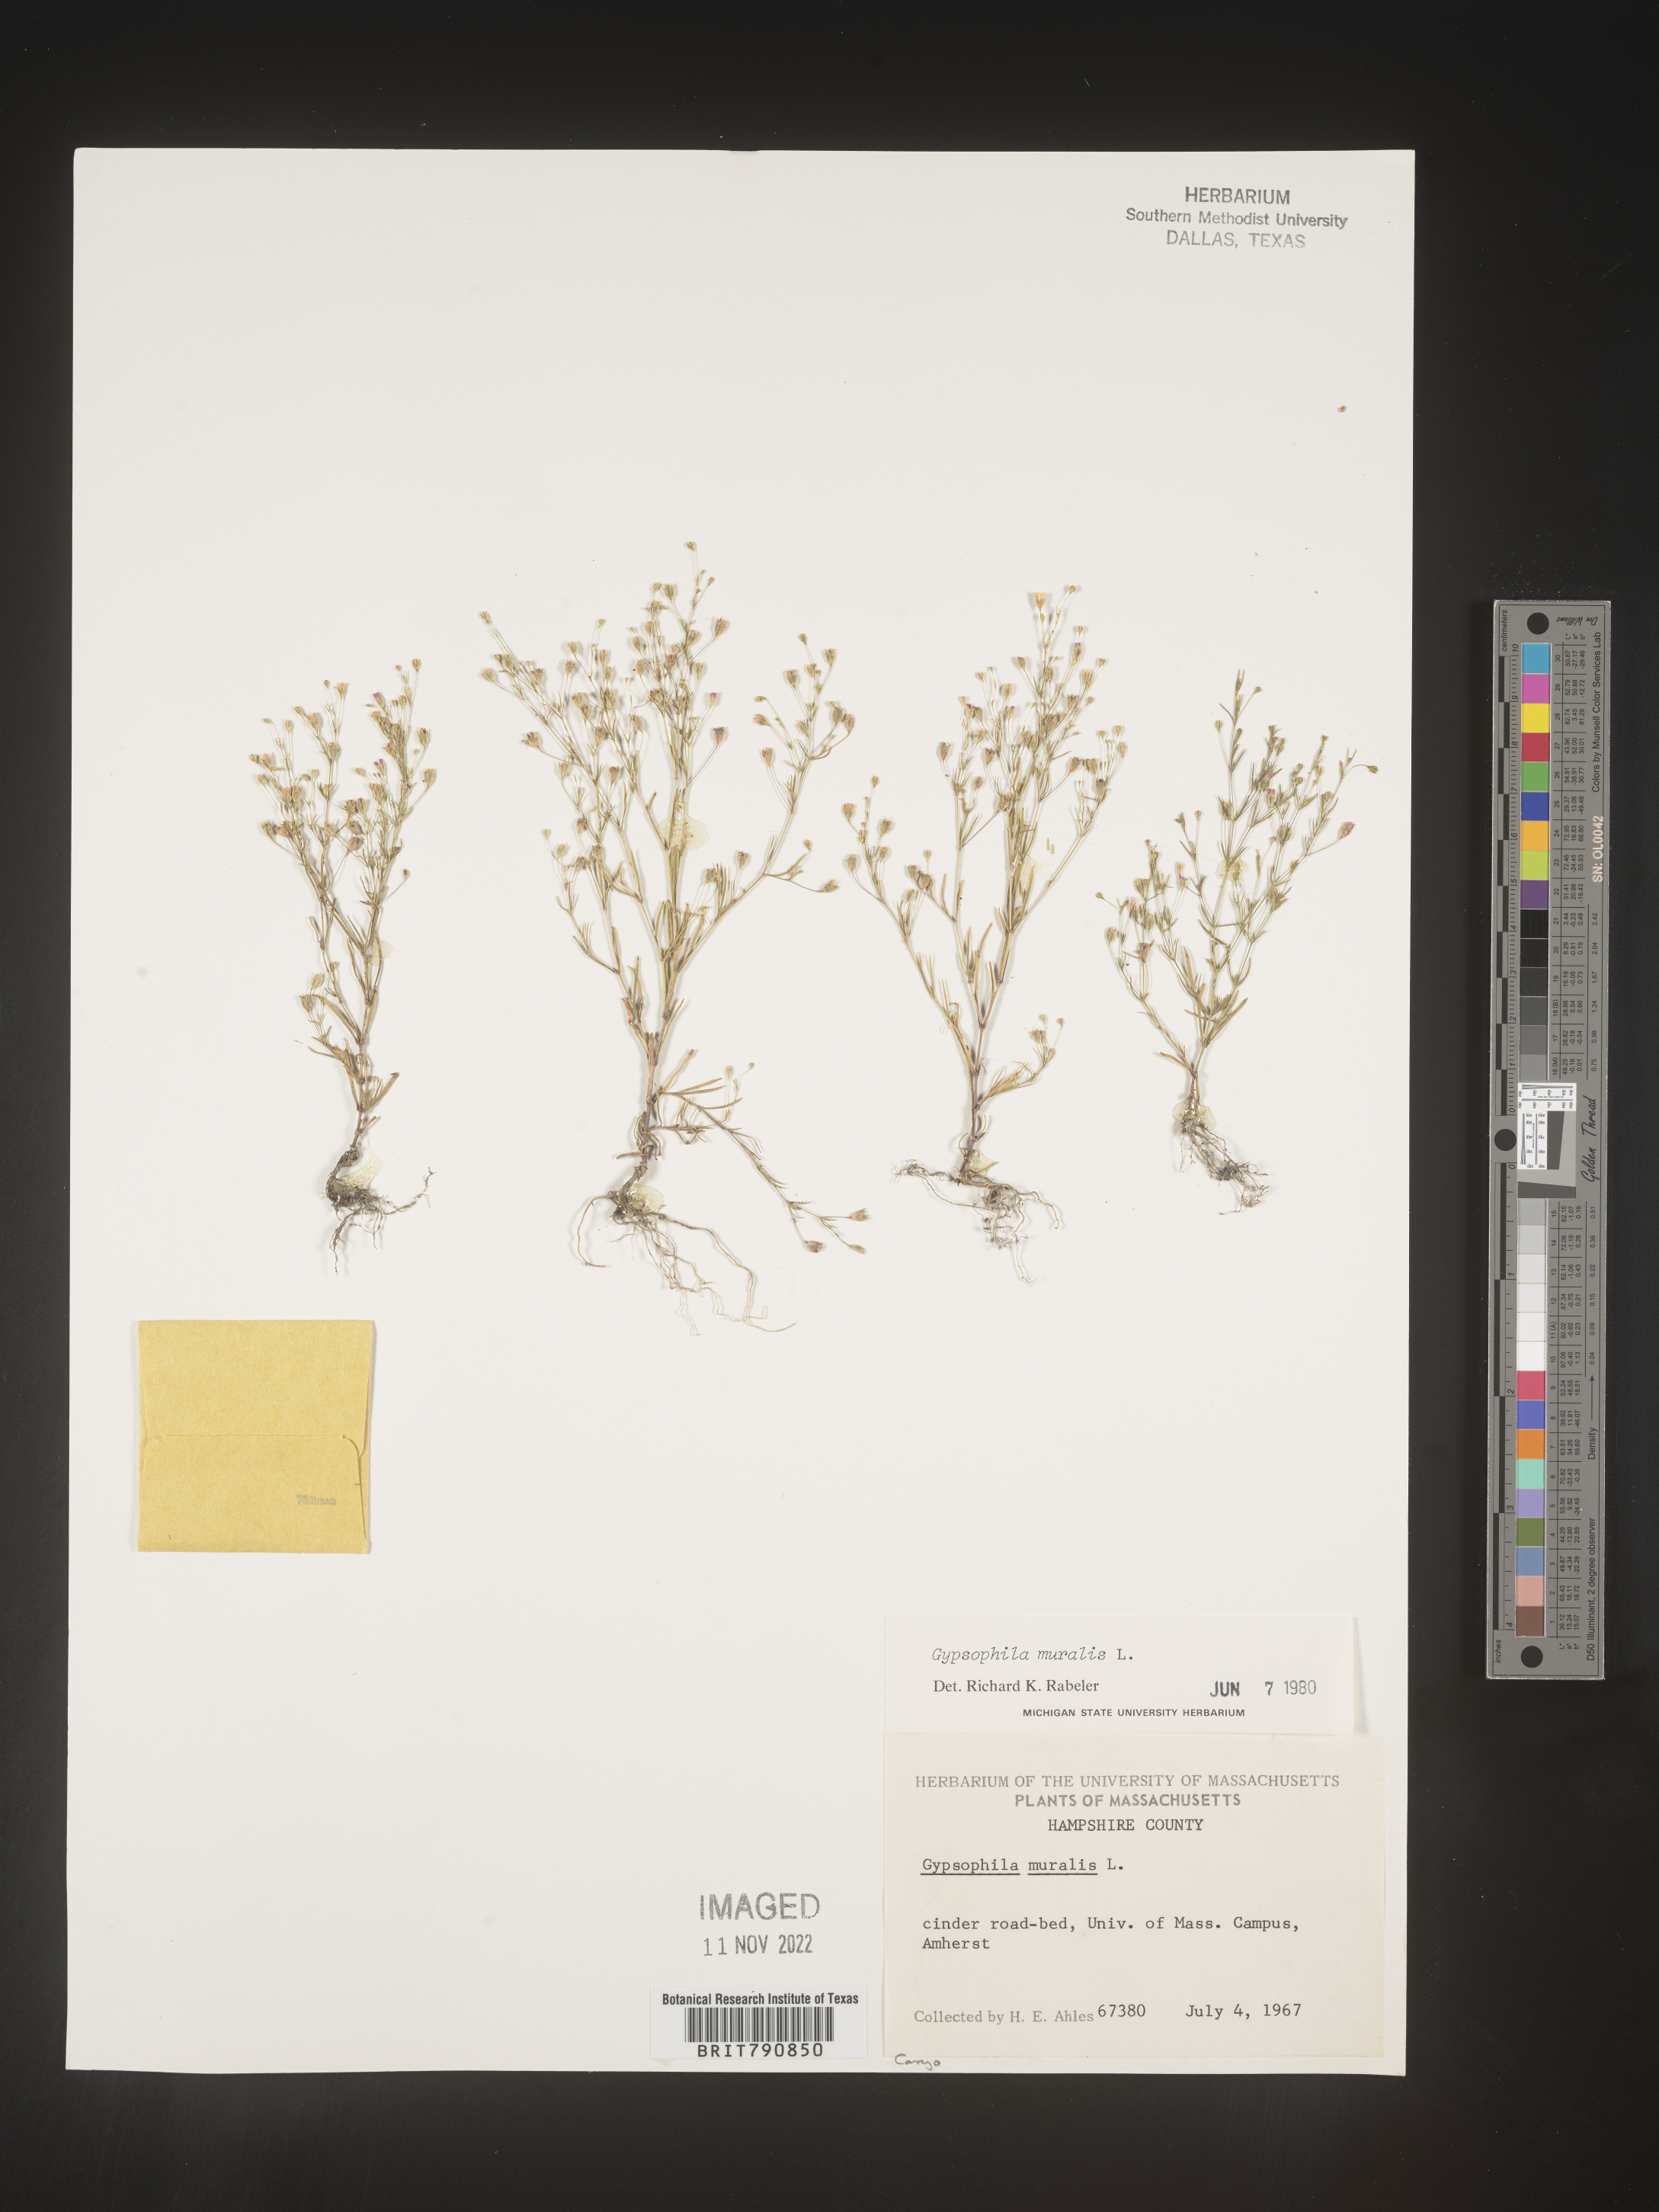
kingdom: Plantae
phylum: Tracheophyta
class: Magnoliopsida
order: Caryophyllales
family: Caryophyllaceae
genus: Gypsophila
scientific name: Gypsophila
